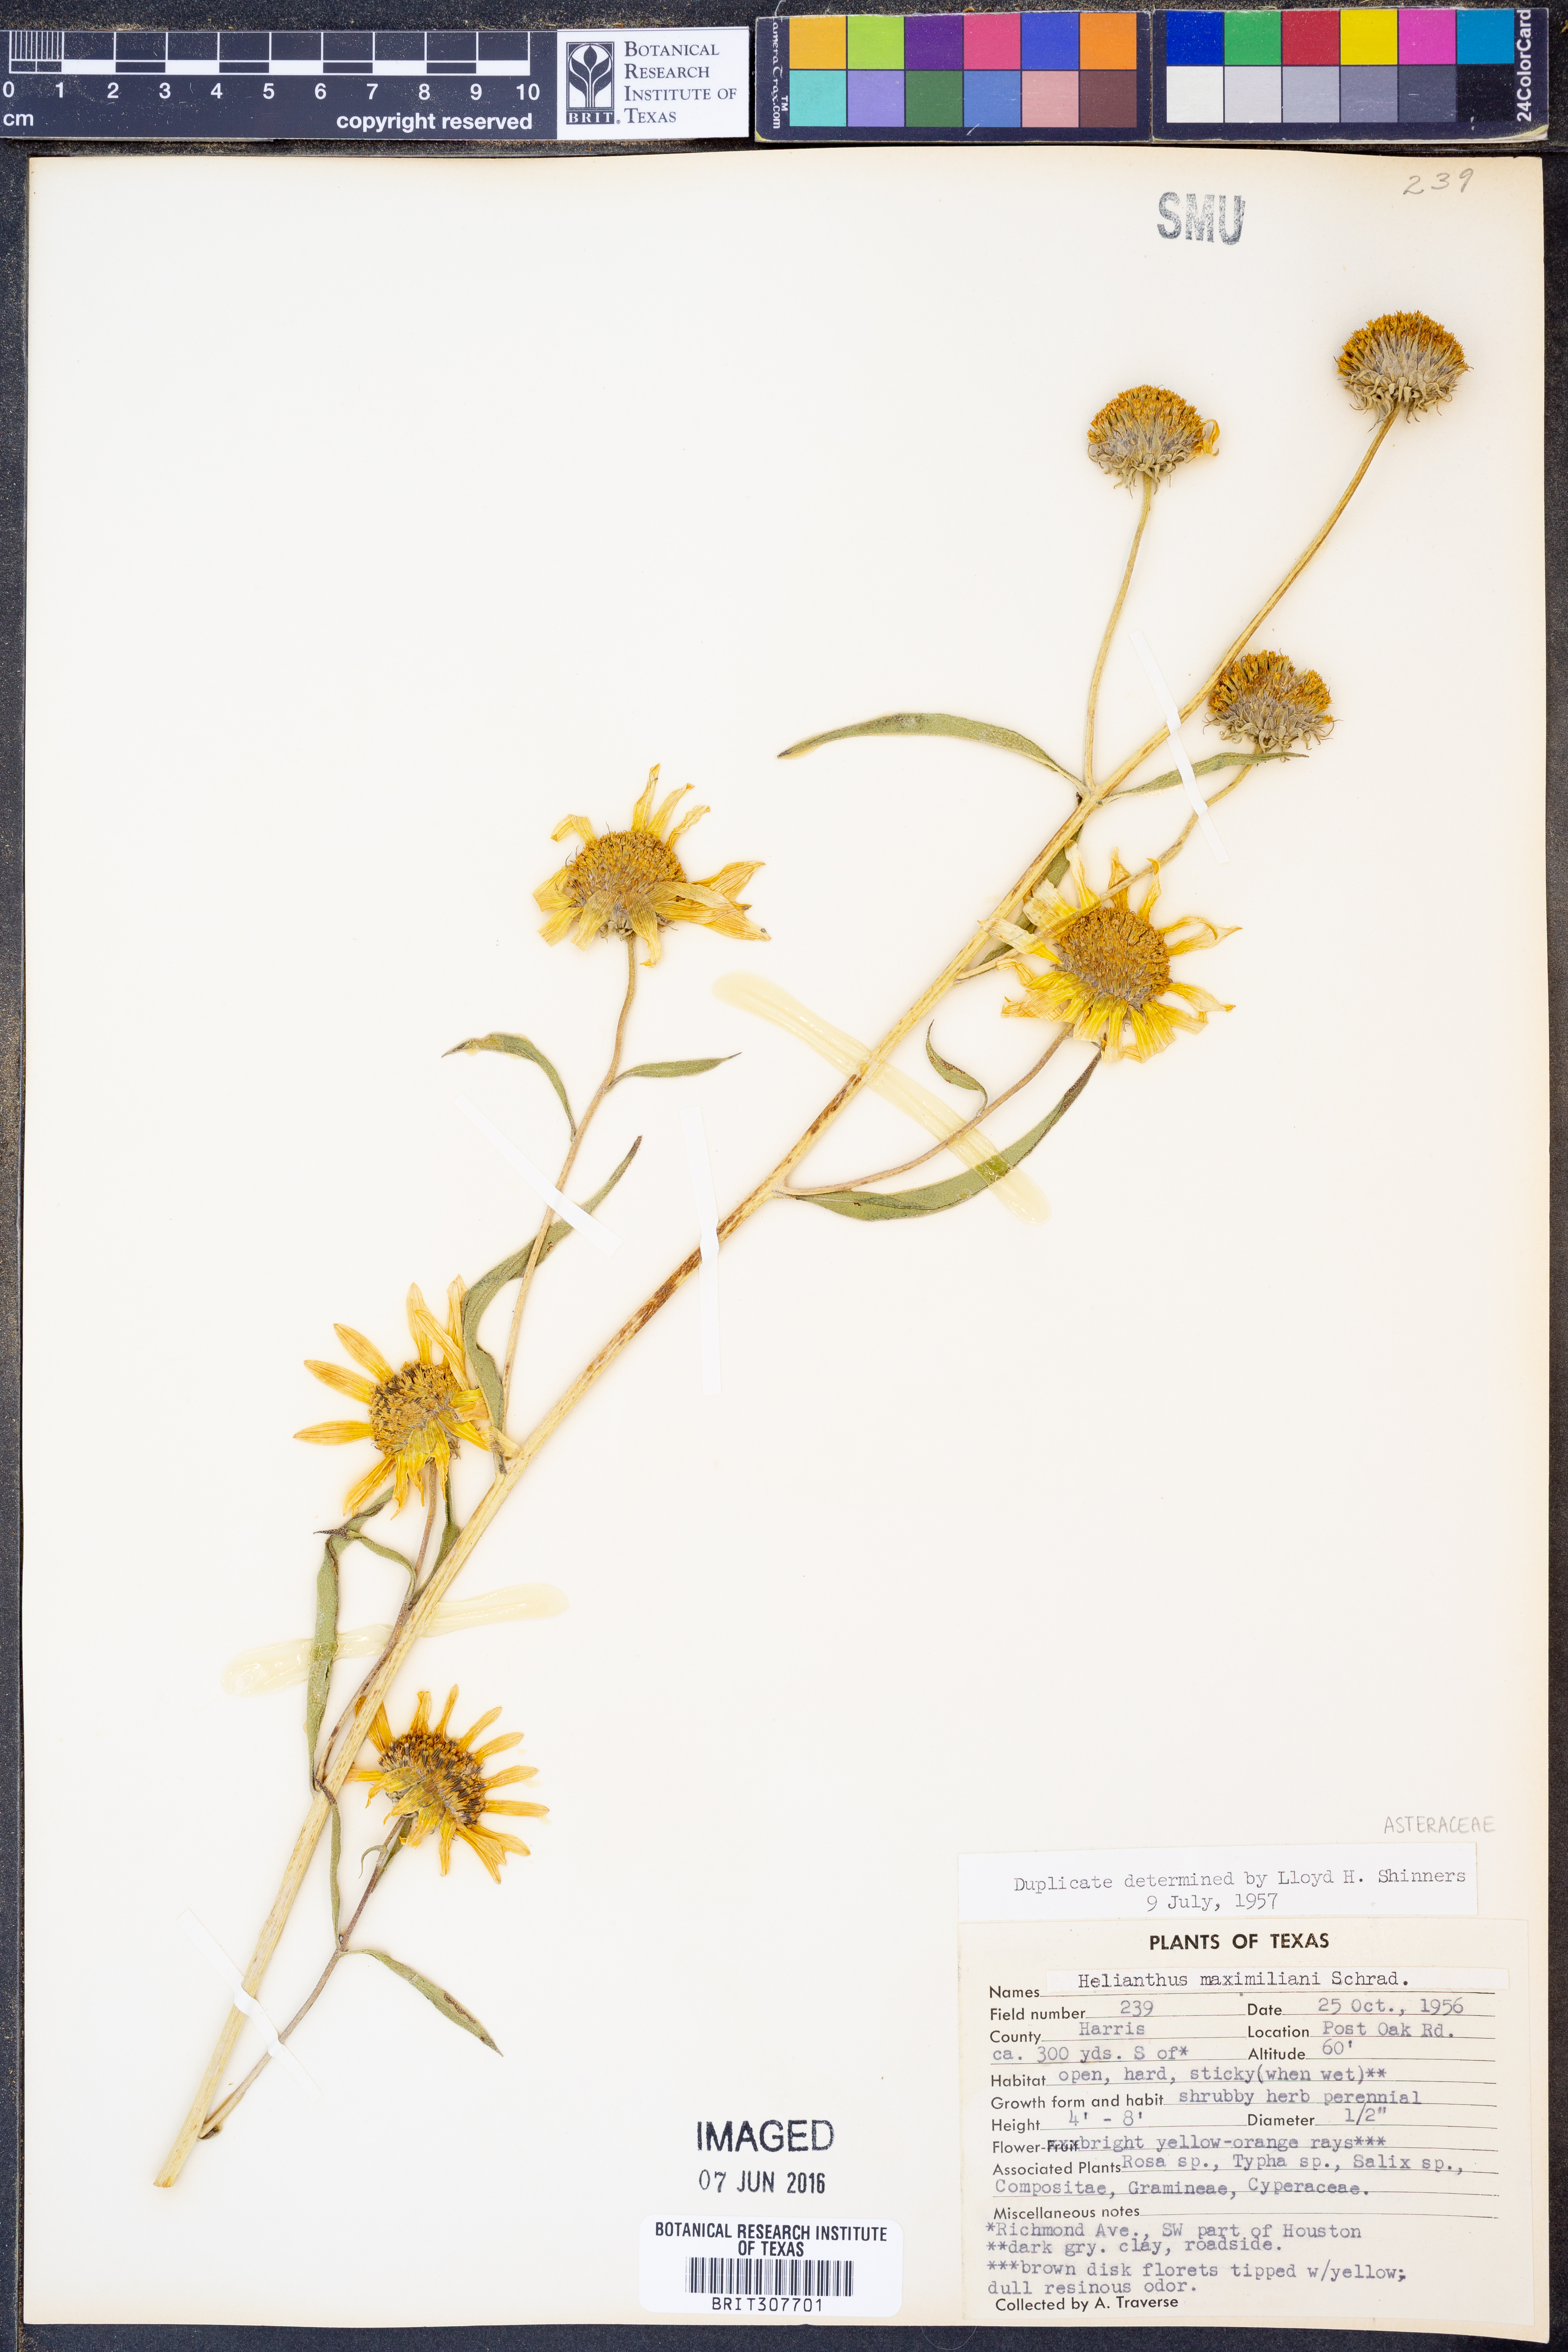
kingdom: Plantae
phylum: Tracheophyta
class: Magnoliopsida
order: Asterales
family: Asteraceae
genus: Helianthus
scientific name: Helianthus maximiliani
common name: Maximilian's sunflower
